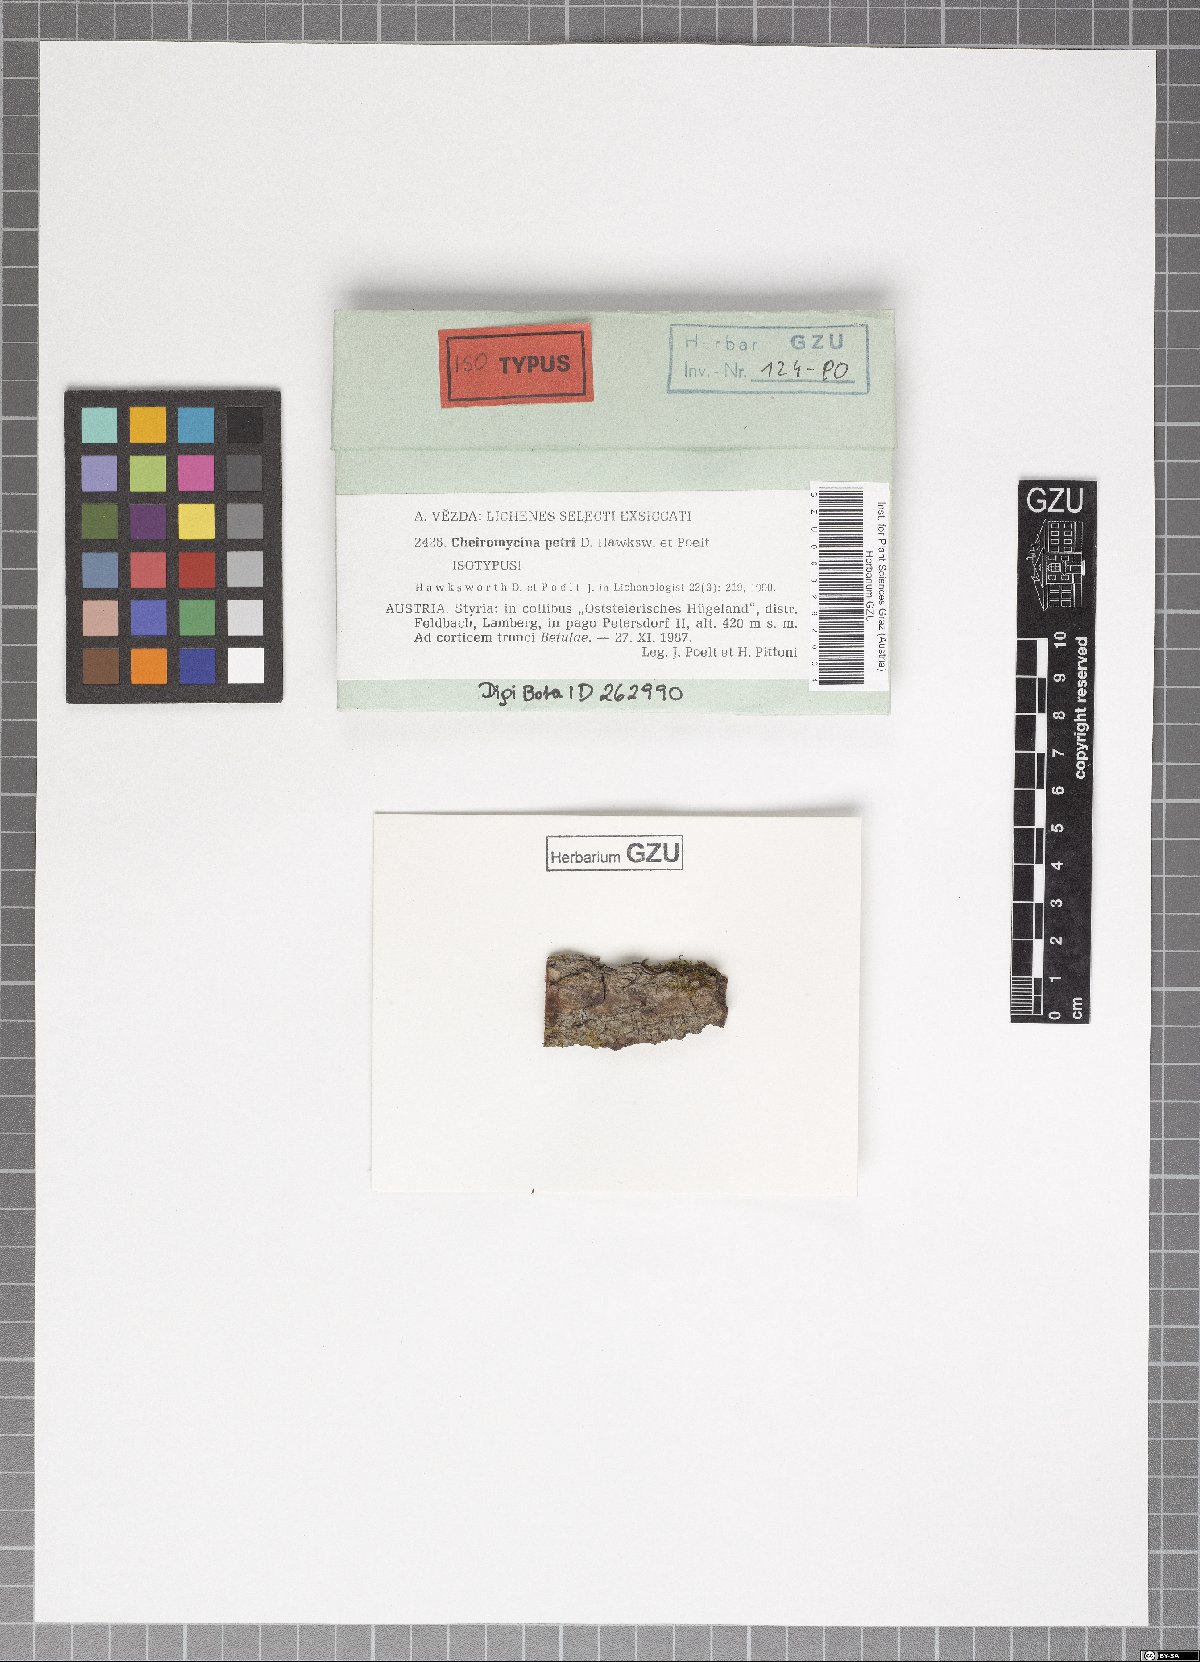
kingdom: Fungi
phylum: Ascomycota
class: Lecanoromycetes
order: Lecanorales
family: Malmideaceae
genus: Cheiromycina
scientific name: Cheiromycina petri
